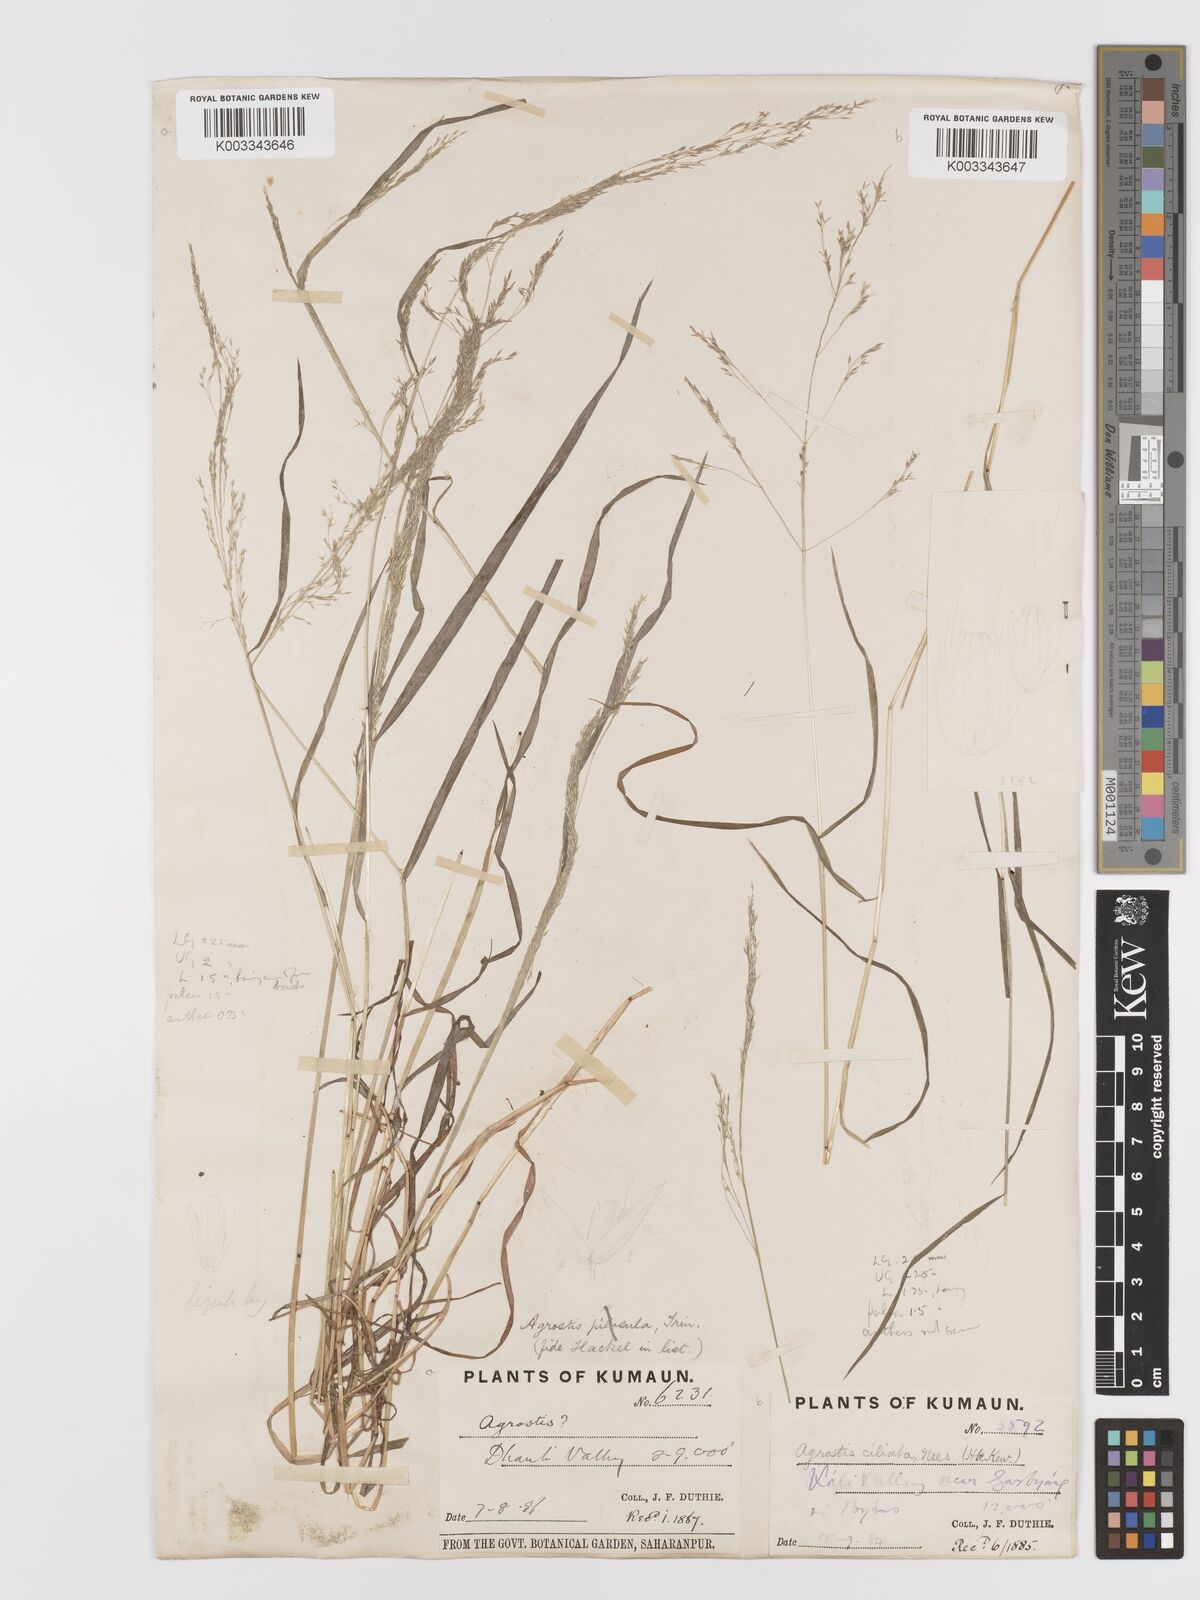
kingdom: Plantae
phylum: Tracheophyta
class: Liliopsida
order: Poales
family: Poaceae
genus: Agrostis
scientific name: Agrostis munroana
